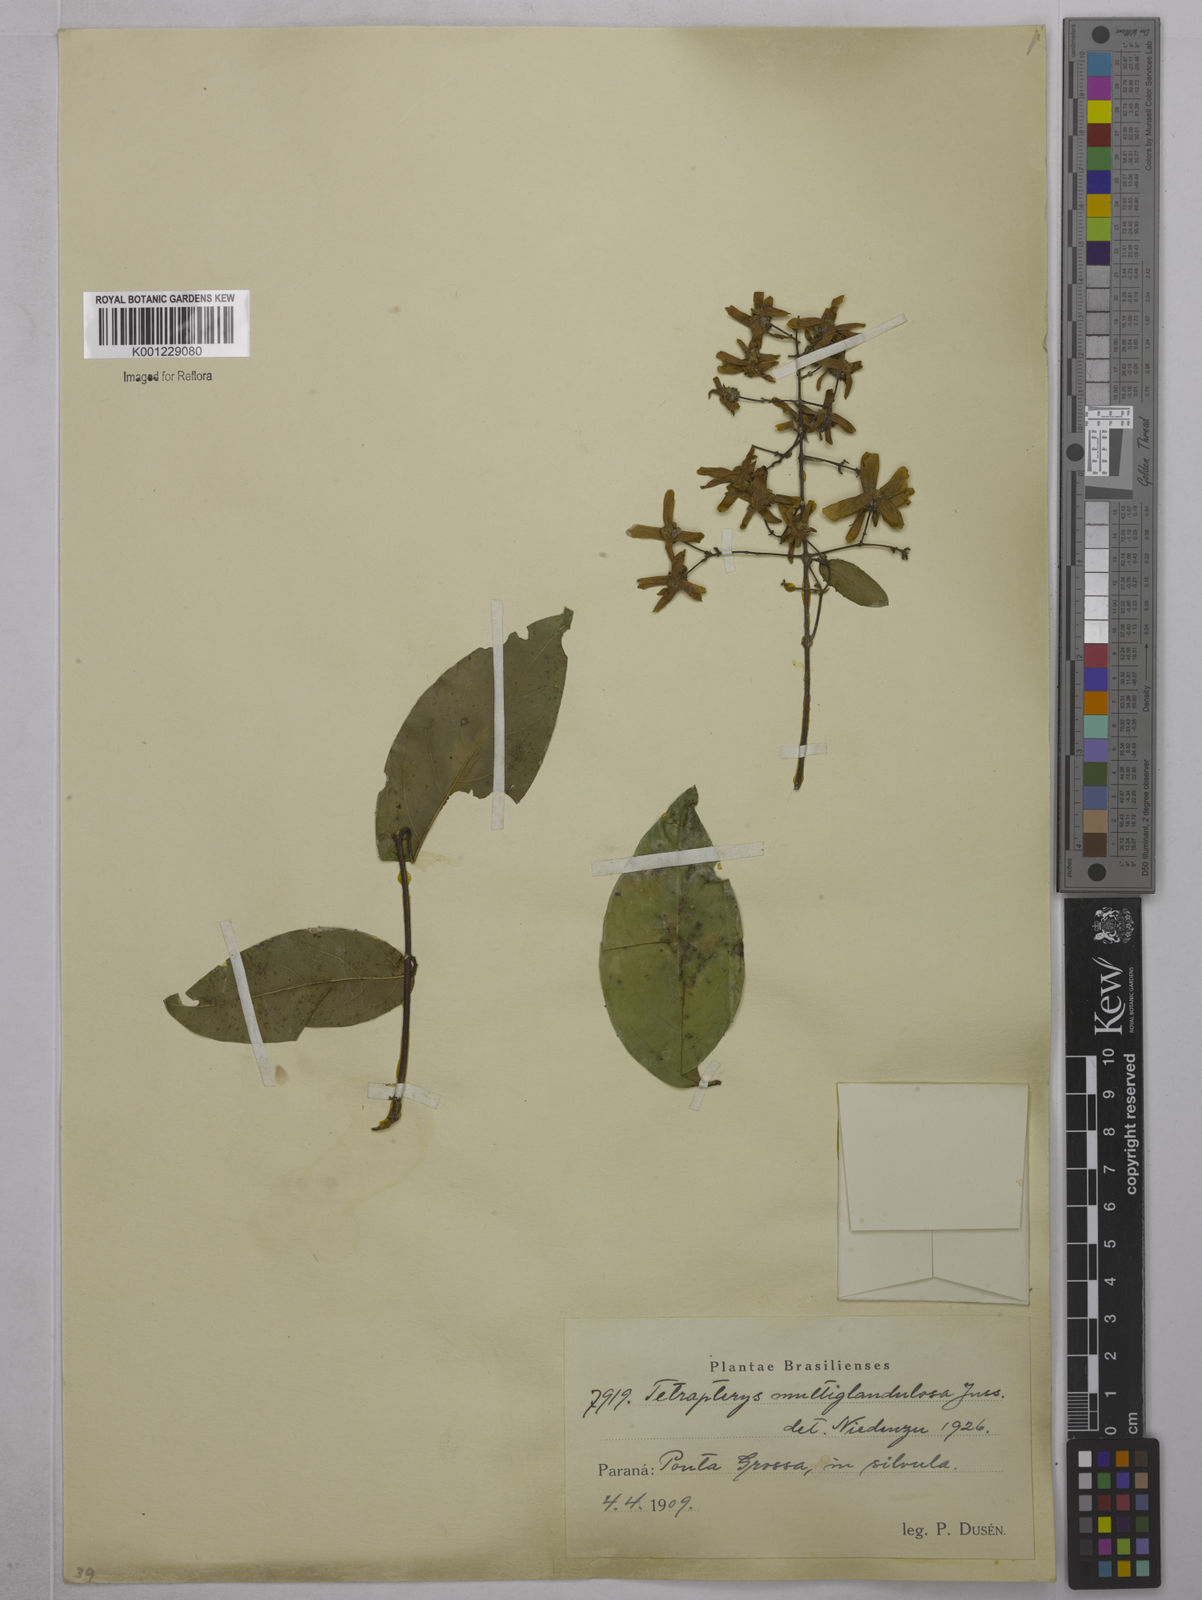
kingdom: Plantae
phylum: Tracheophyta
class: Magnoliopsida
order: Malpighiales
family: Malpighiaceae
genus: Niedenzuella
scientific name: Niedenzuella multiglandulosa
